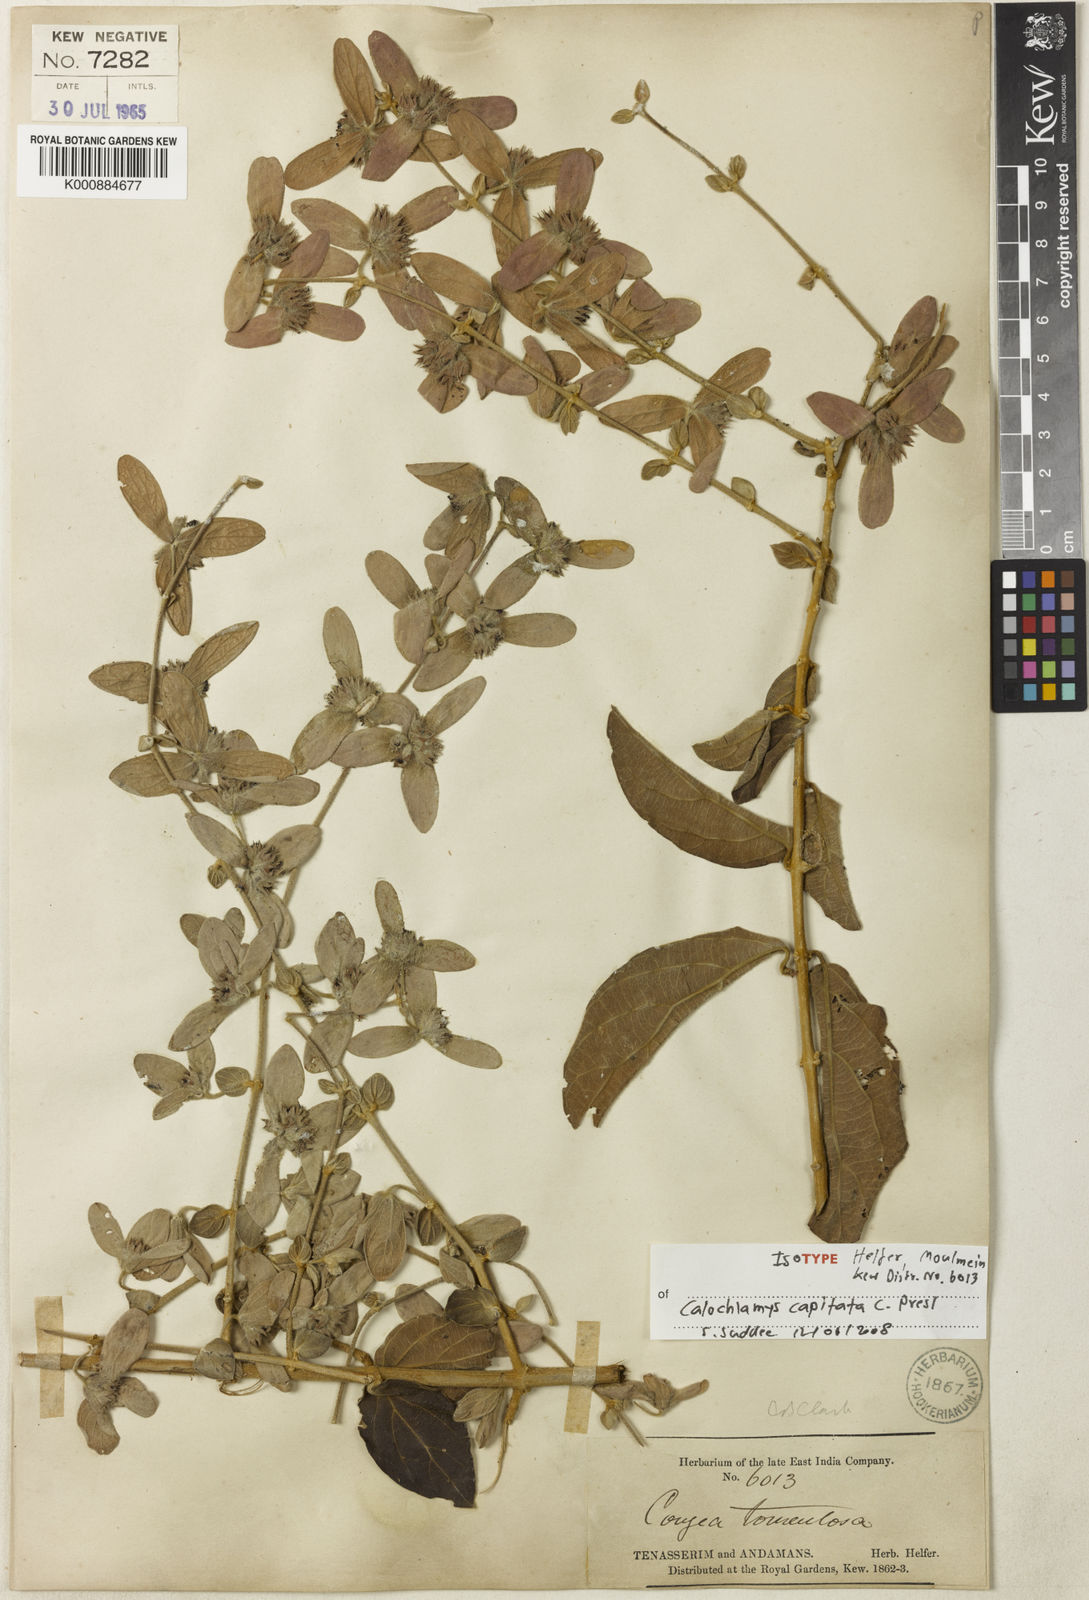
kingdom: Plantae
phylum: Tracheophyta
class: Magnoliopsida
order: Lamiales
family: Lamiaceae
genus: Congea
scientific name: Congea tomentosa
